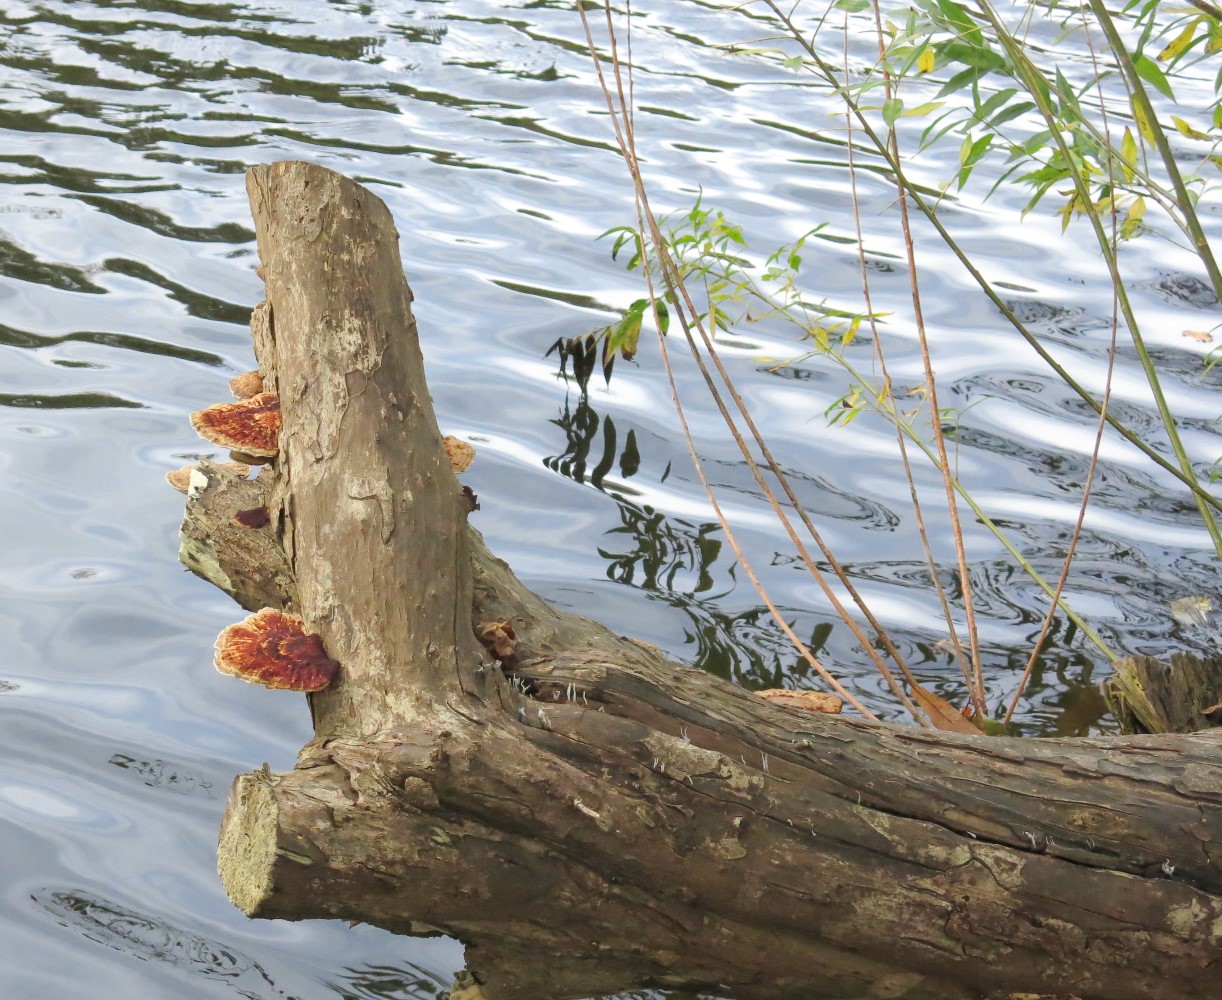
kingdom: Fungi
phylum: Basidiomycota
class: Agaricomycetes
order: Polyporales
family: Polyporaceae
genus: Daedaleopsis
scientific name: Daedaleopsis confragosa
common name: rødmende læderporesvamp
